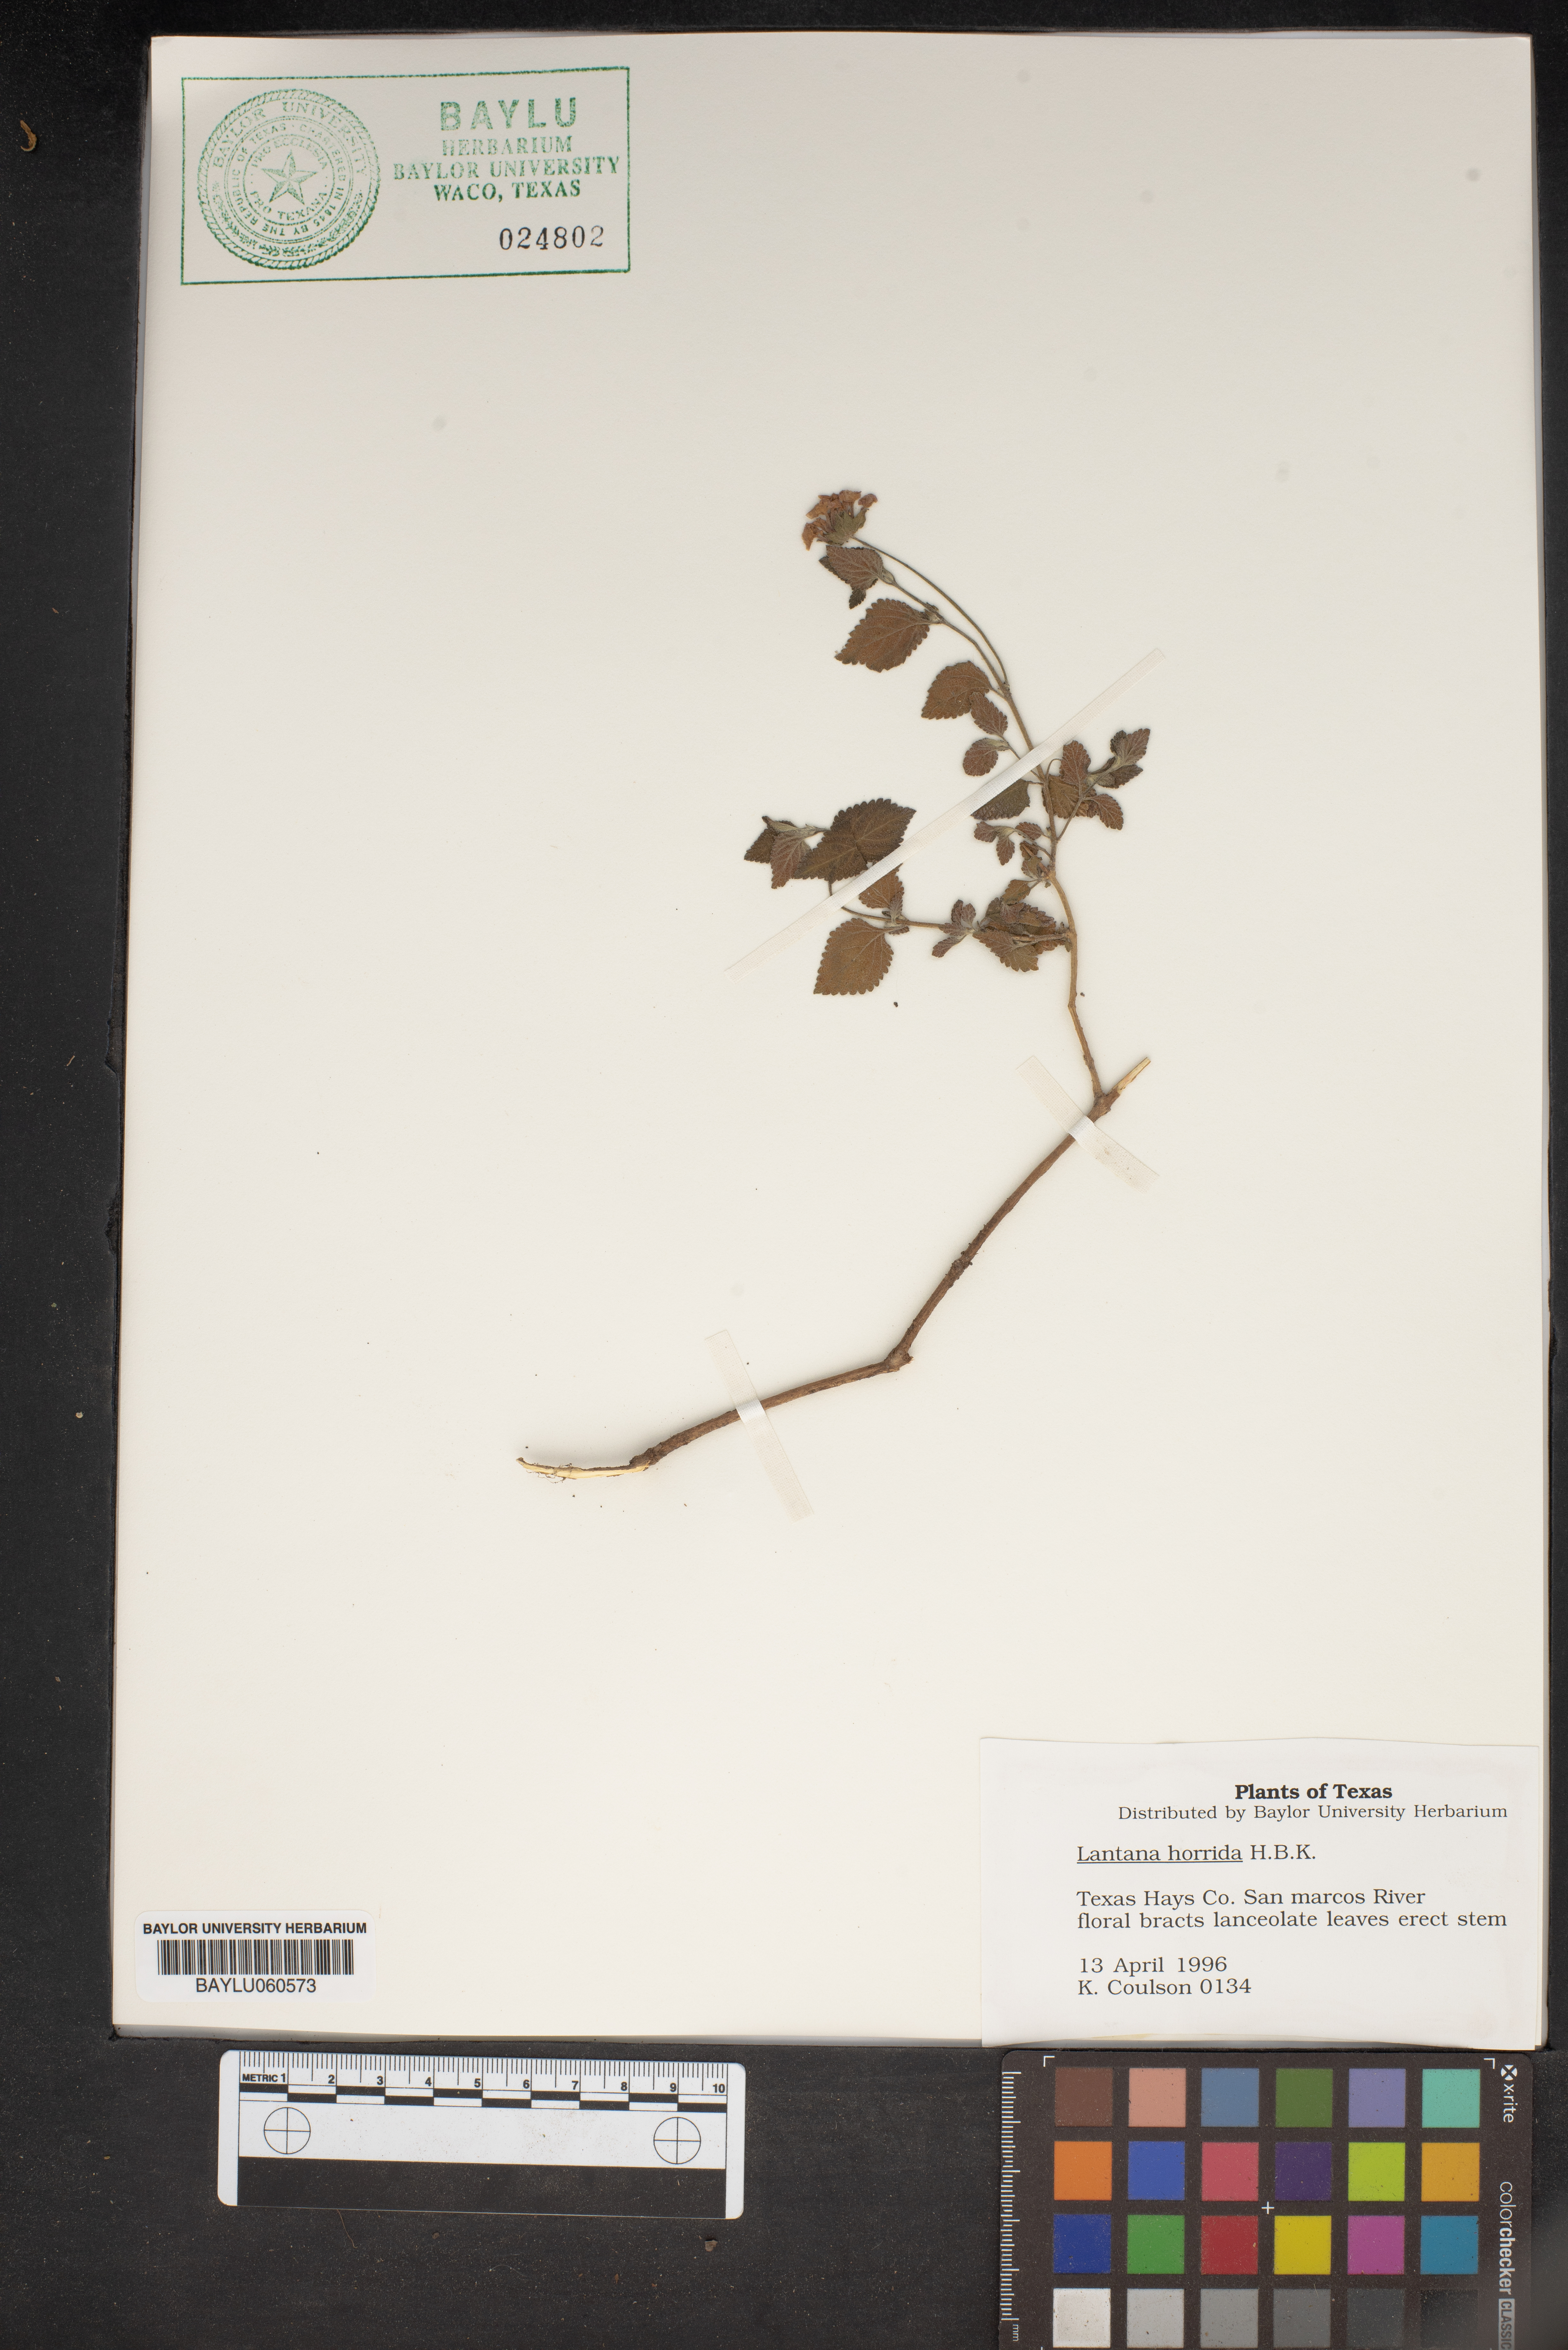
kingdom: Plantae
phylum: Tracheophyta
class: Magnoliopsida
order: Lamiales
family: Verbenaceae
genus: Lantana
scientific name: Lantana horrida
